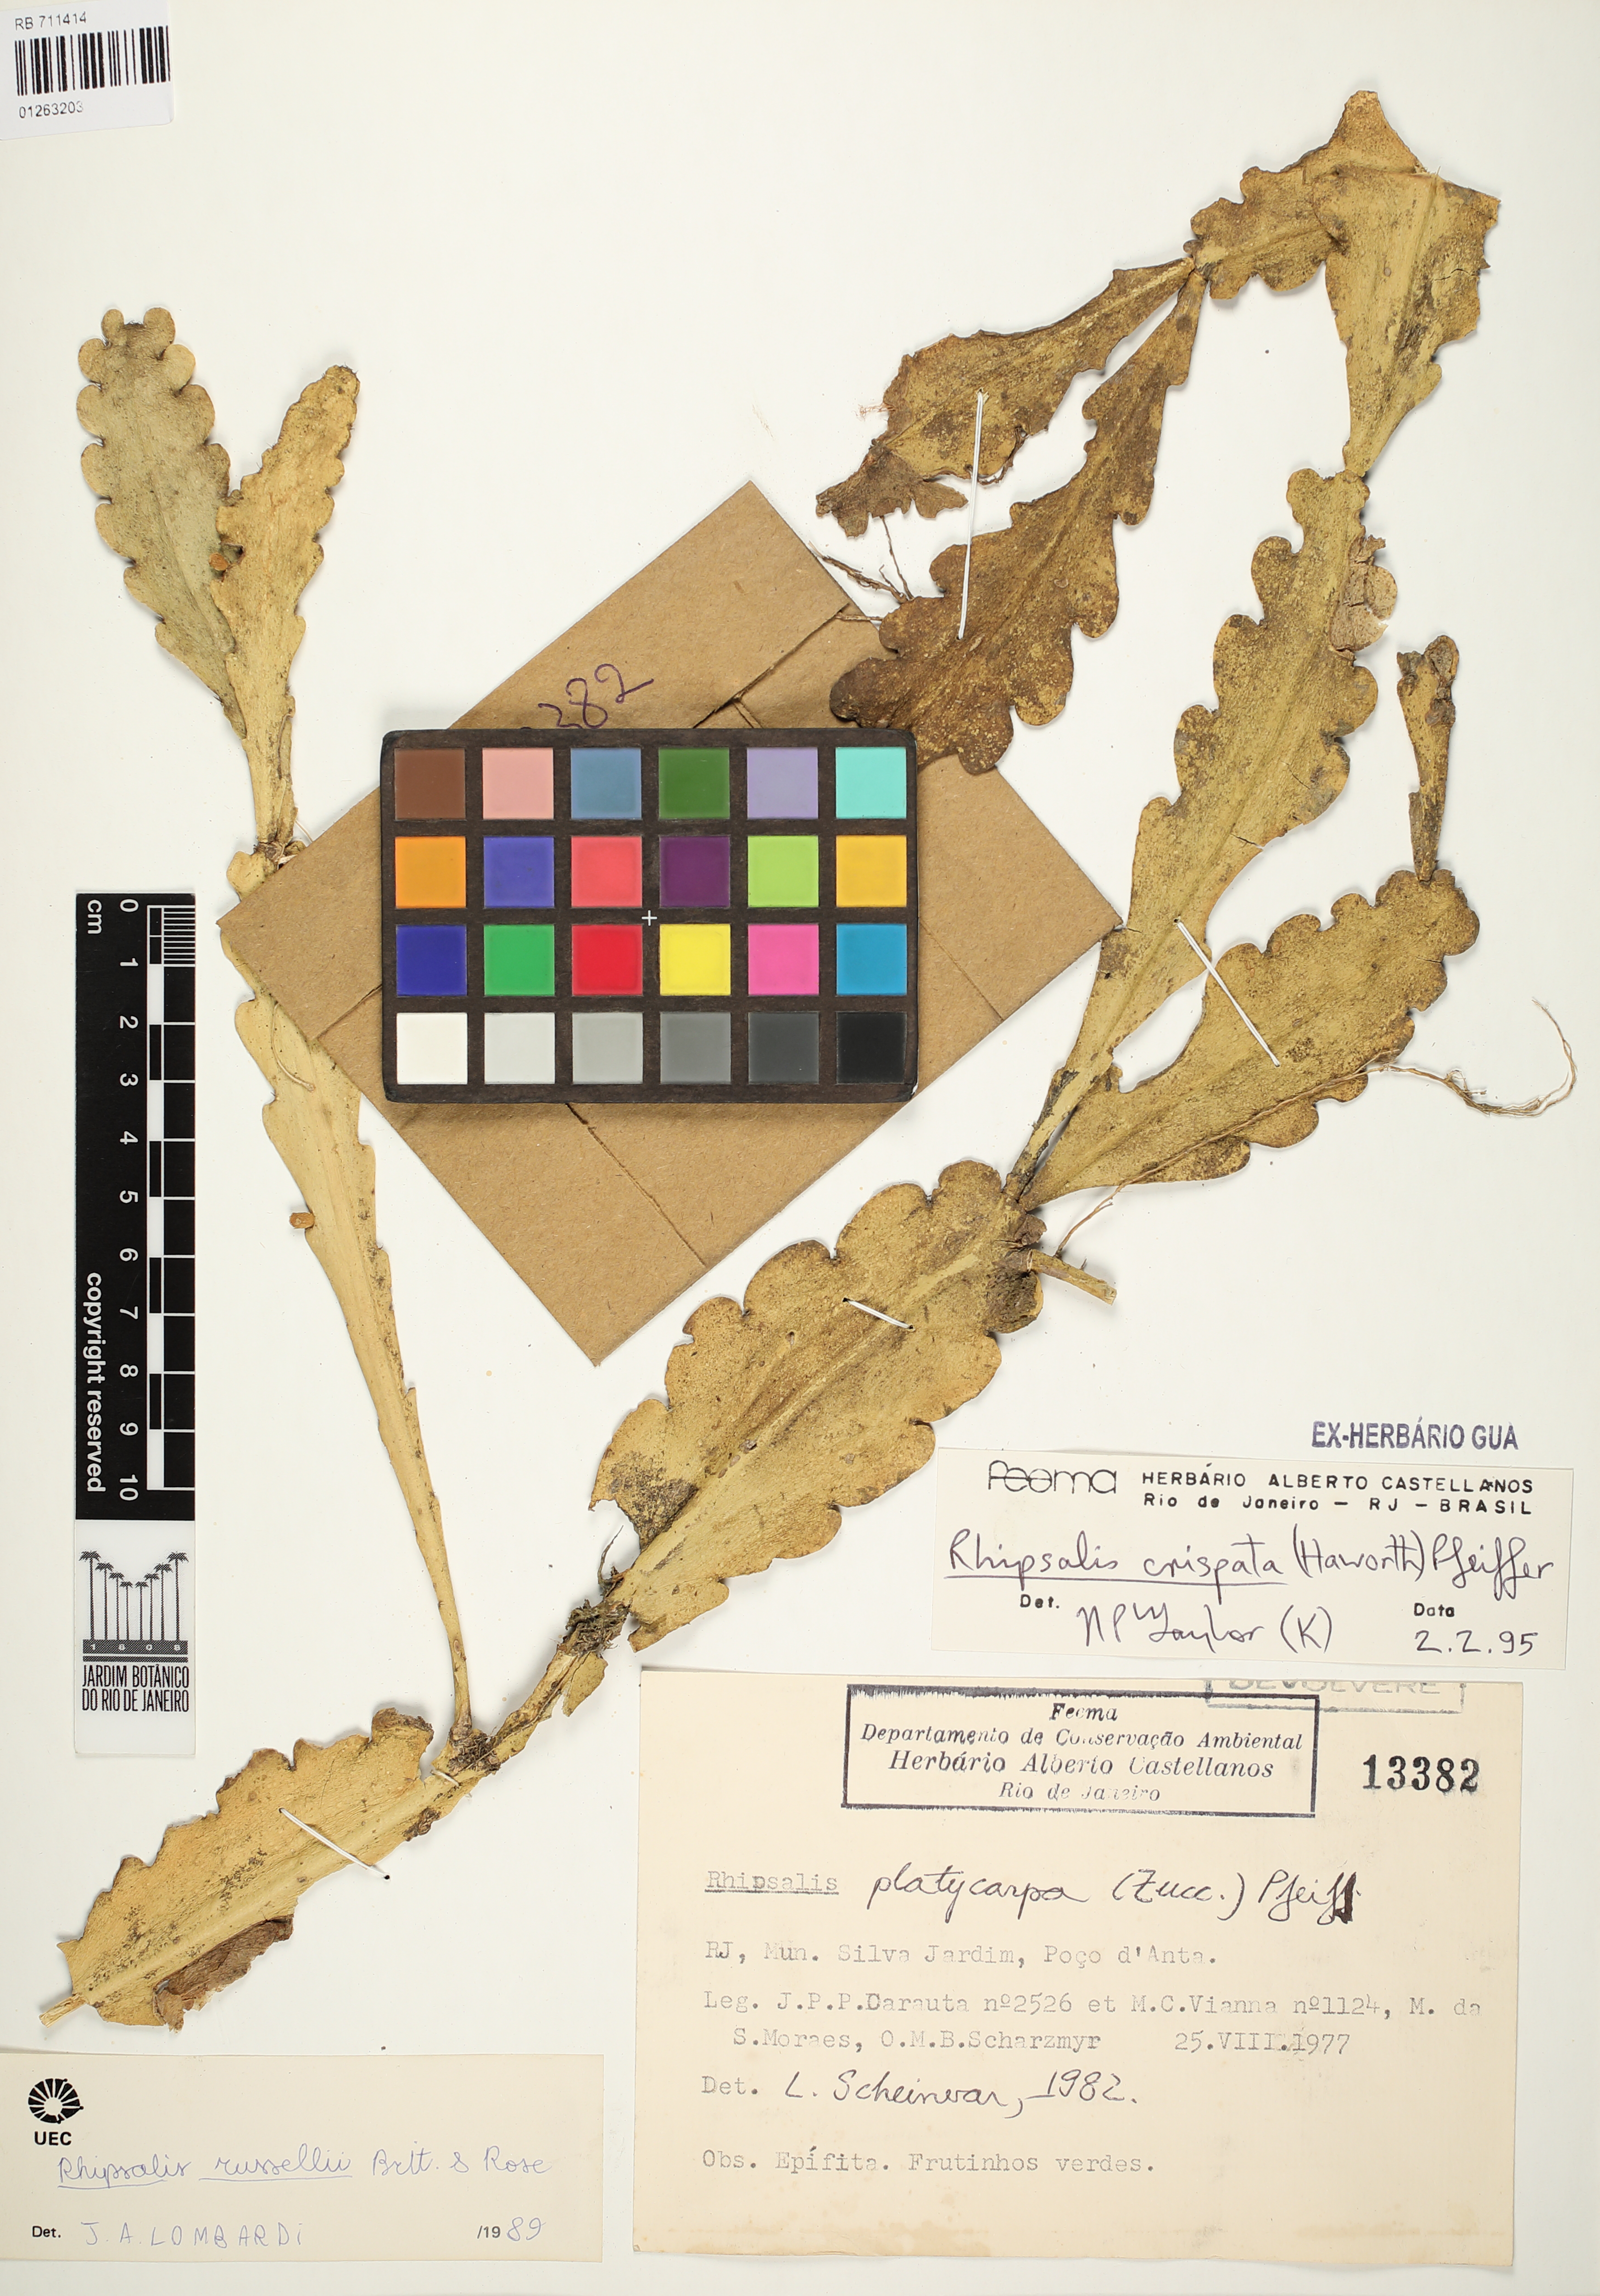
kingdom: Plantae
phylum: Tracheophyta
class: Magnoliopsida
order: Caryophyllales
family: Cactaceae
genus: Rhipsalis
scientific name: Rhipsalis crispata
